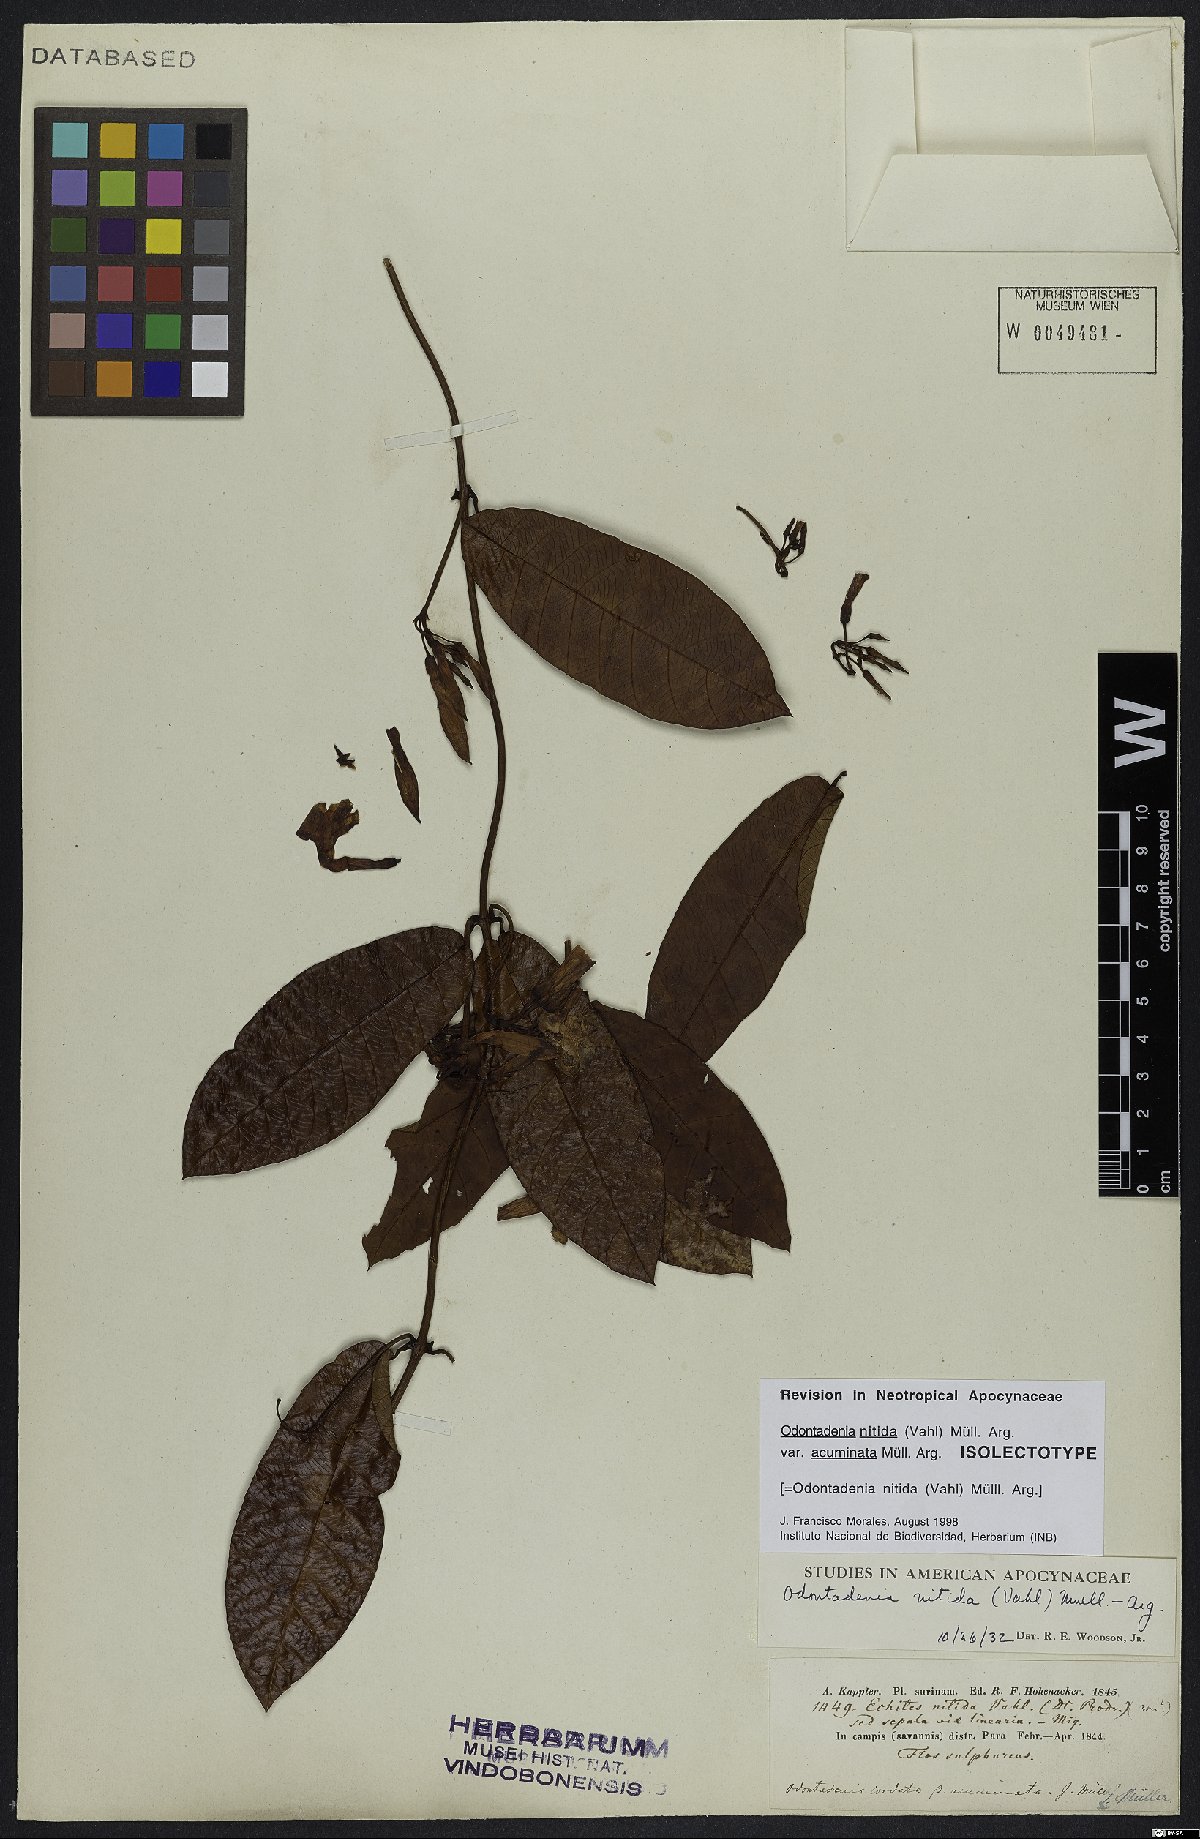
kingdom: Plantae
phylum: Tracheophyta
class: Magnoliopsida
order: Gentianales
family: Apocynaceae
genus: Odontadenia
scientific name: Odontadenia nitida
